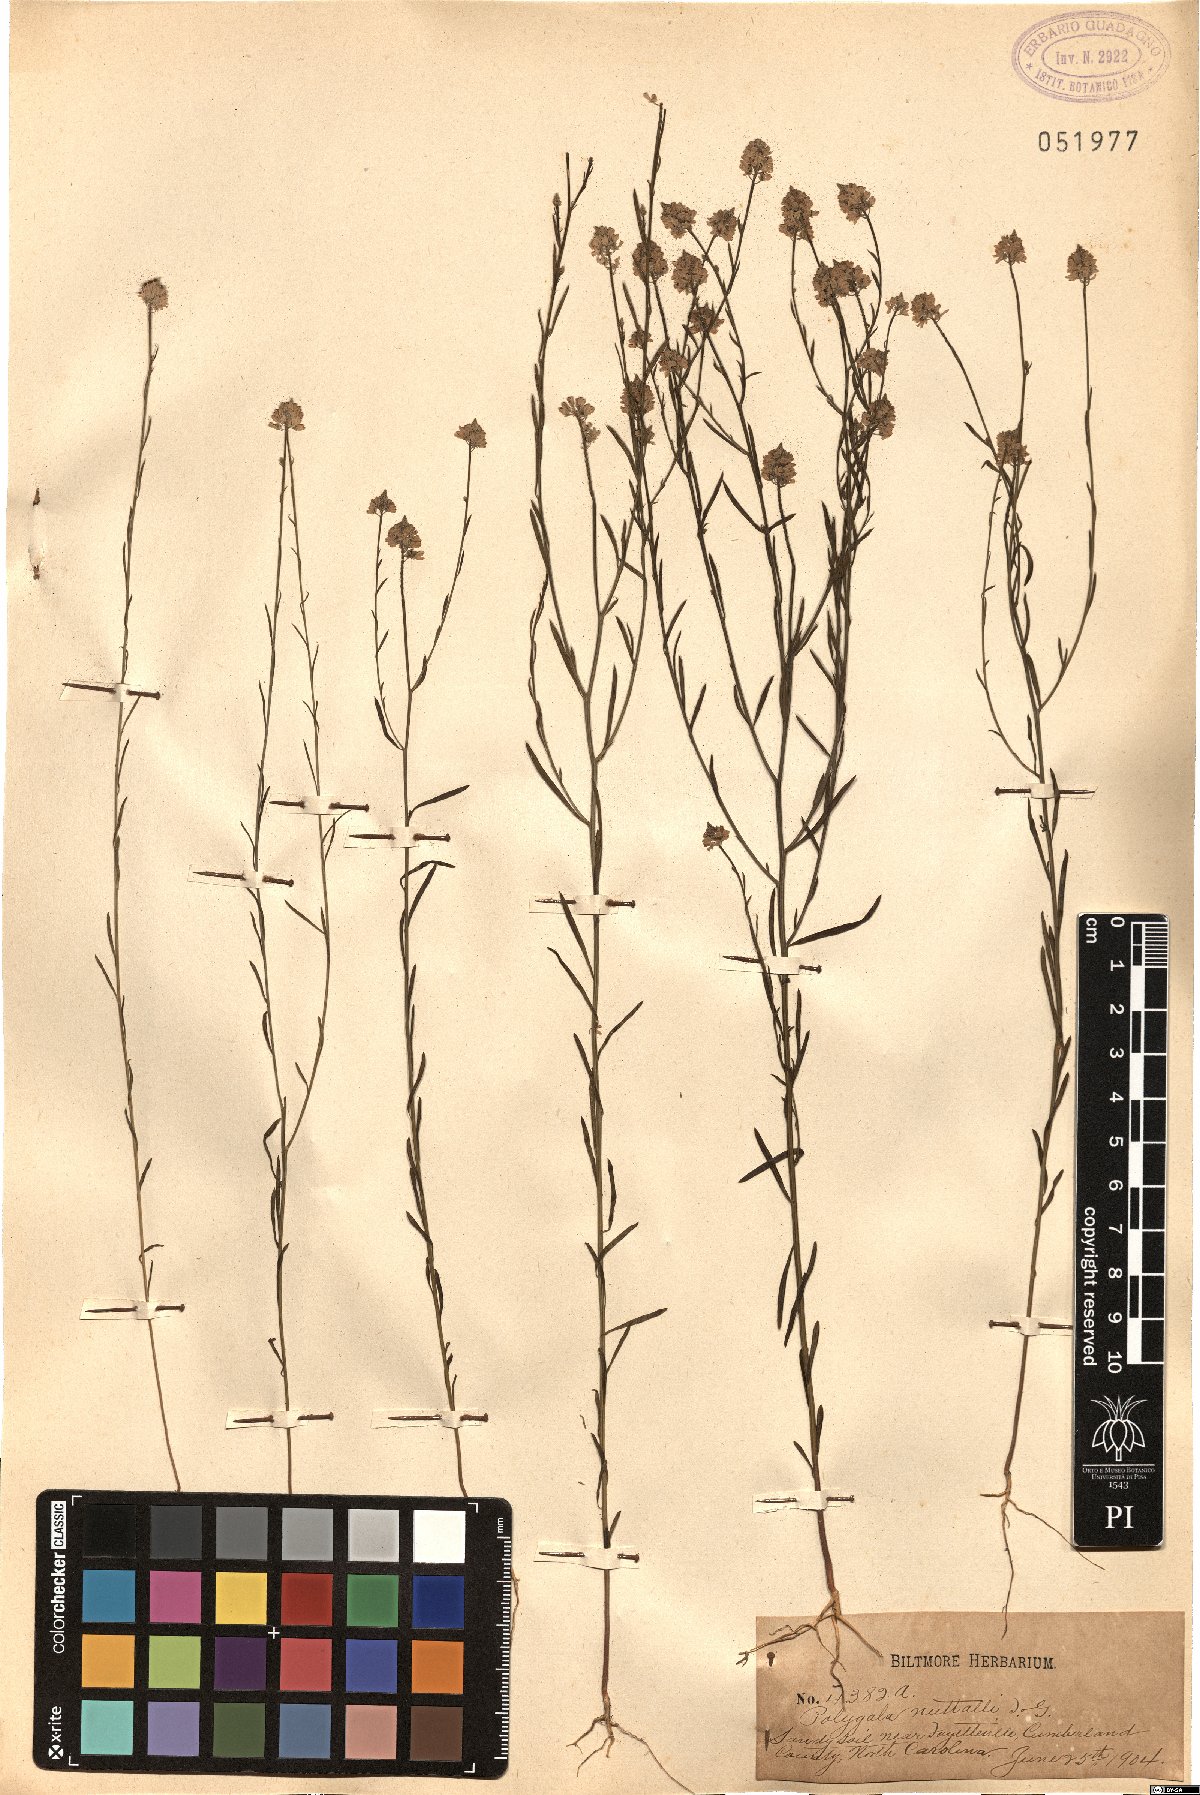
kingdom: Plantae
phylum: Tracheophyta
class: Magnoliopsida
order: Fabales
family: Polygalaceae
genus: Polygala
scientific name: Polygala nuttallii
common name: Nuttall's milkwort
